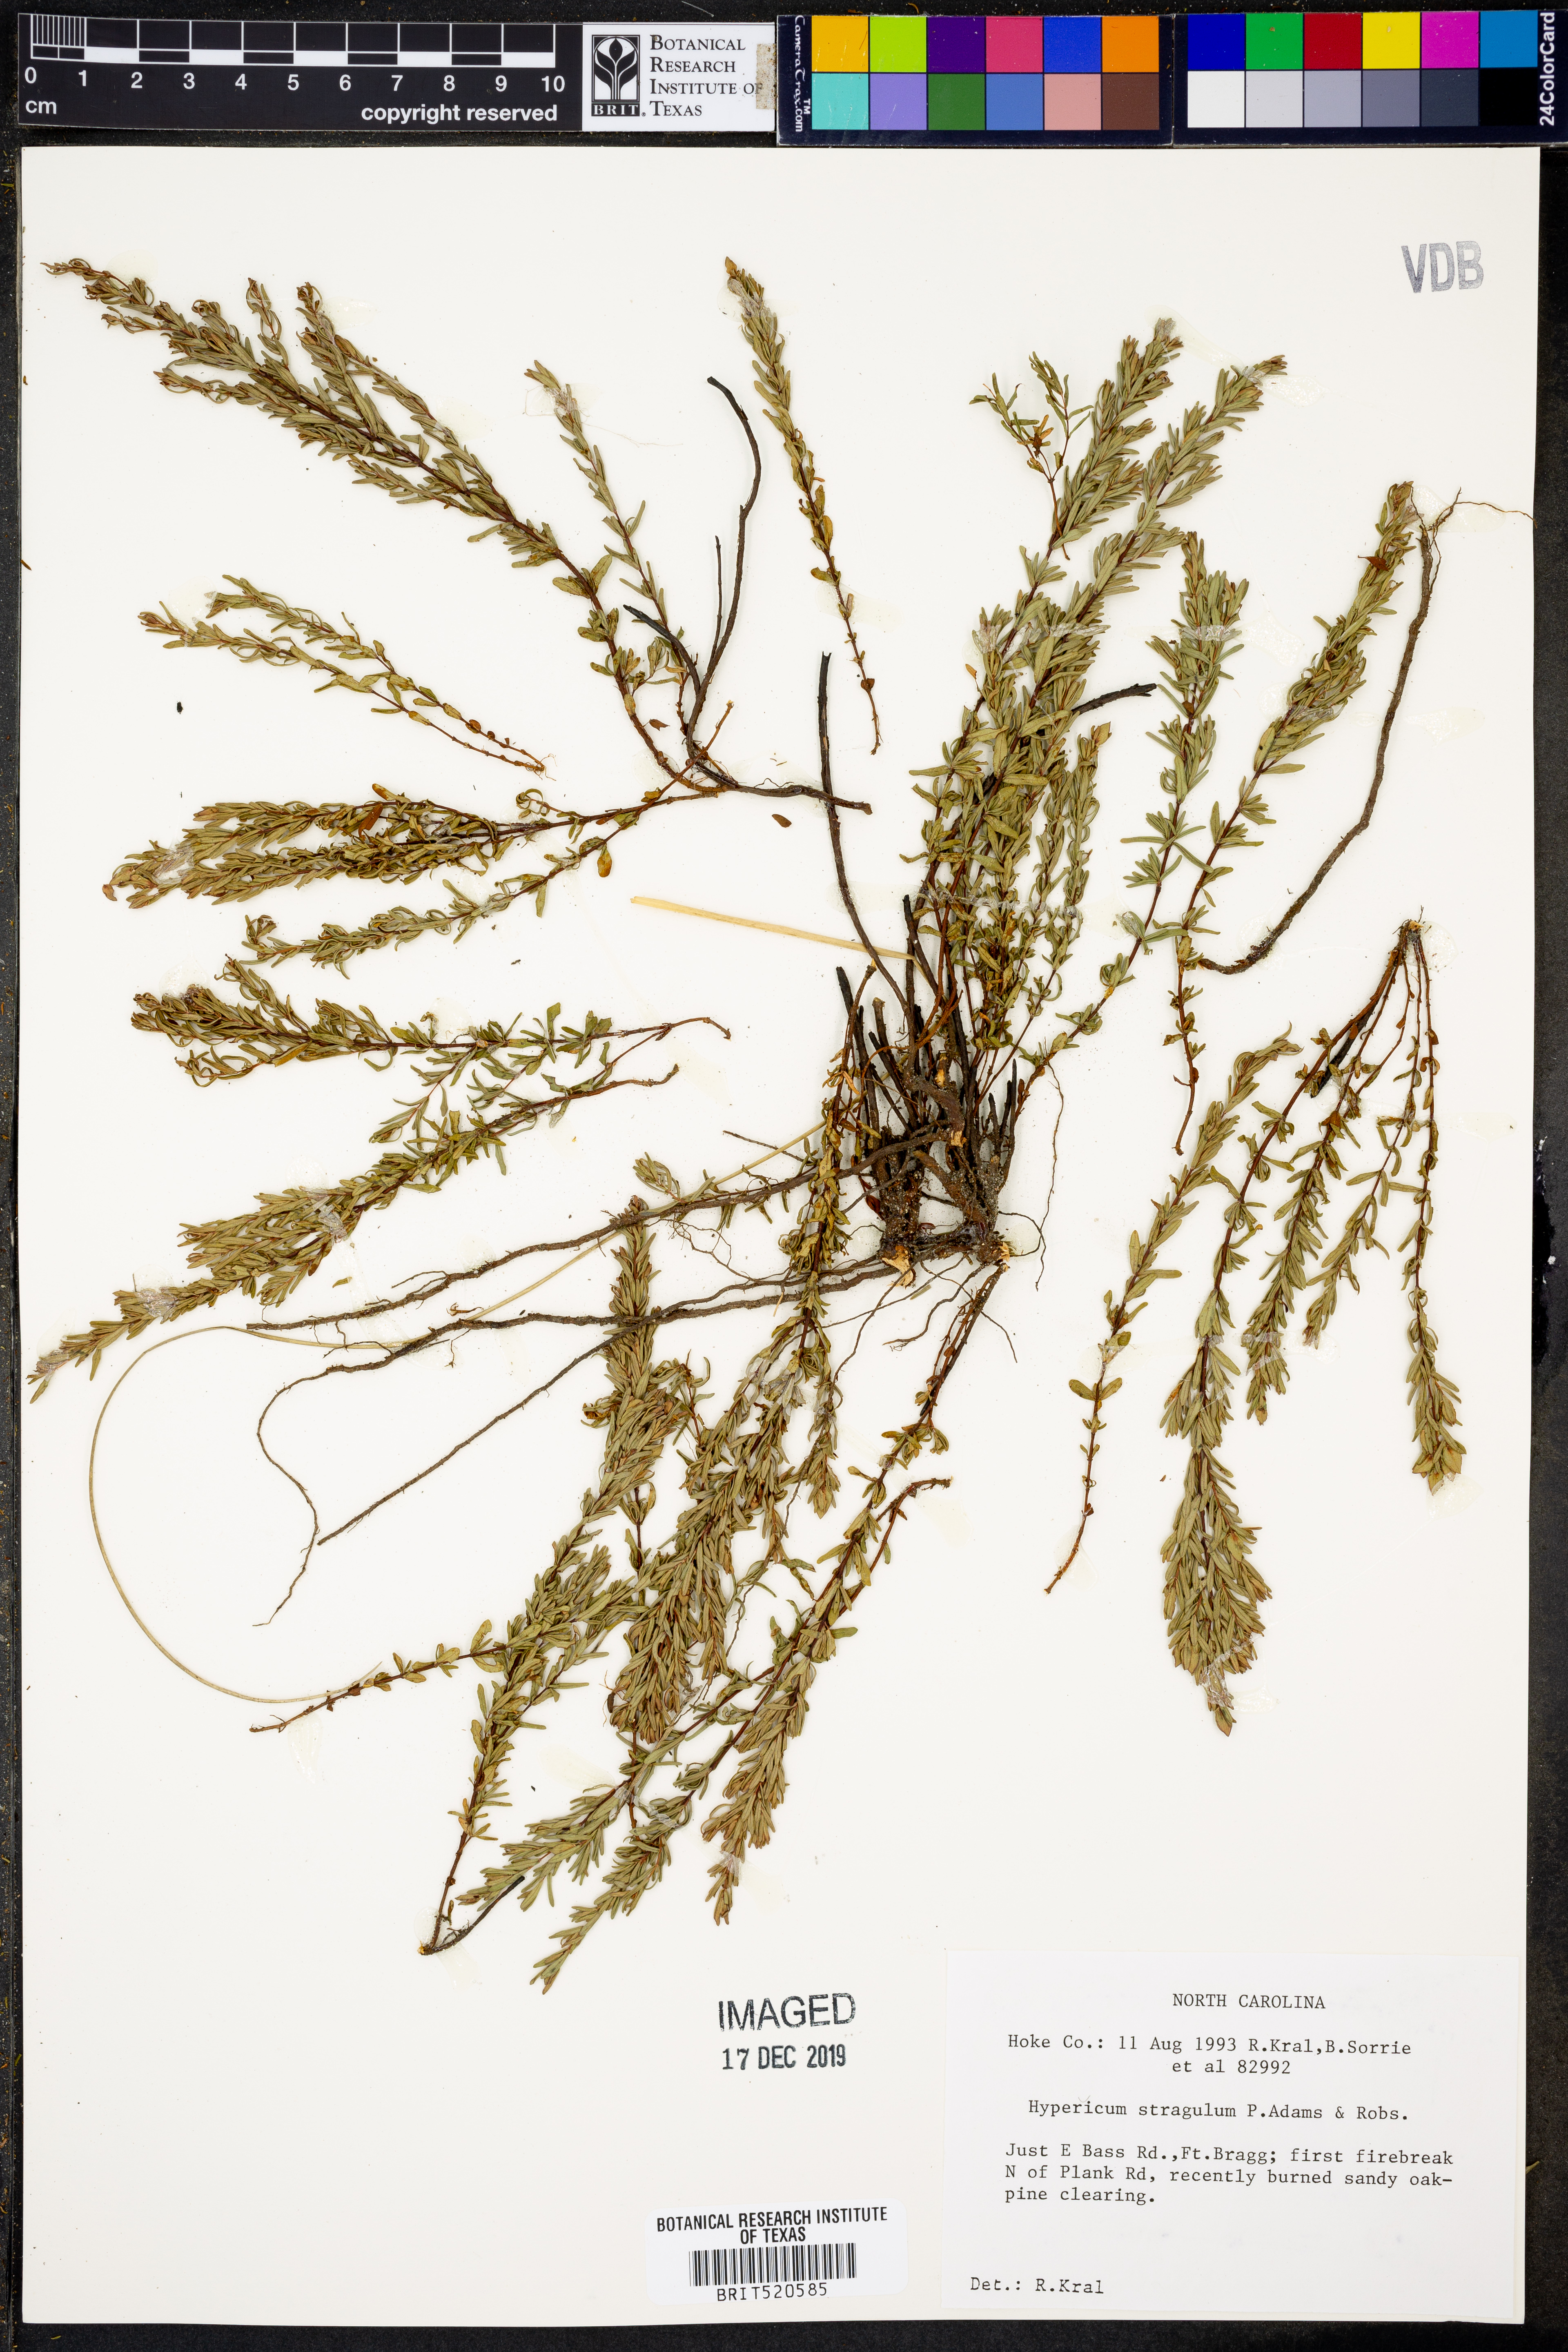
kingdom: Plantae
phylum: Tracheophyta
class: Magnoliopsida
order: Malpighiales
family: Hypericaceae
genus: Hypericum
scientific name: Hypericum hypericoides
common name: St. andrew's cross
